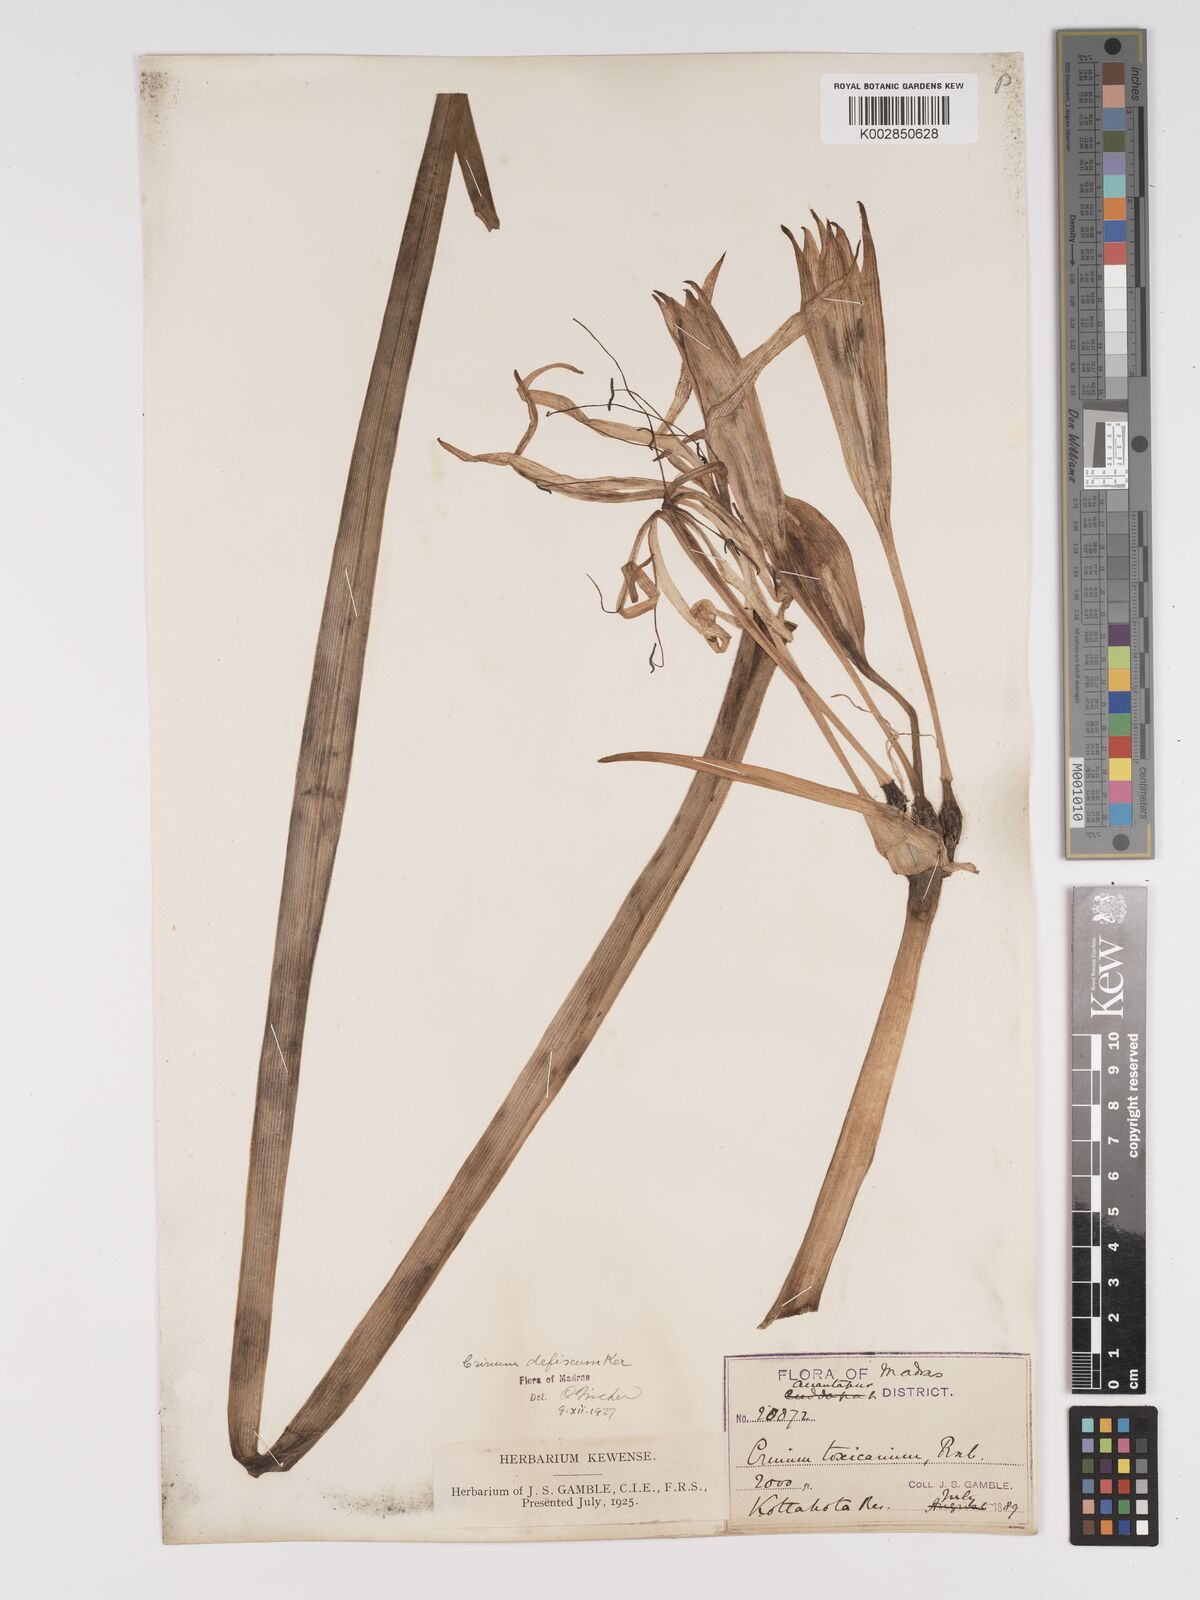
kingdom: Plantae
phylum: Tracheophyta
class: Liliopsida
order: Asparagales
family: Amaryllidaceae
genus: Crinum
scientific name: Crinum defixum
